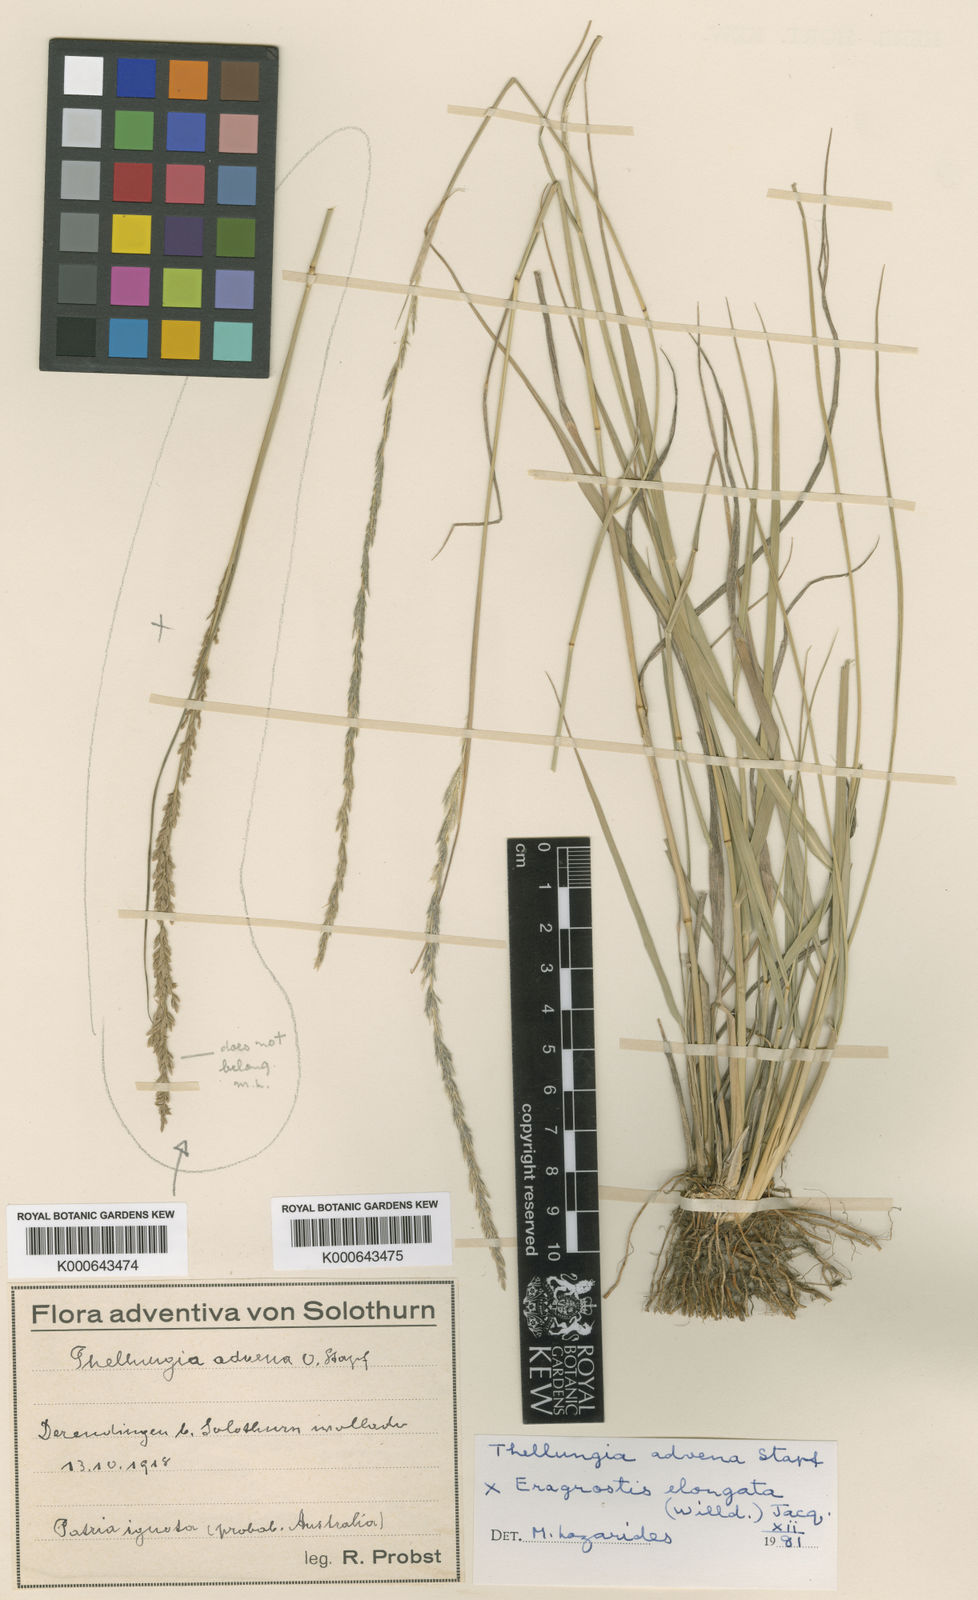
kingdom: Plantae
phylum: Tracheophyta
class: Liliopsida
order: Poales
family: Poaceae
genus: Sporobolus
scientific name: Sporobolus advenus
